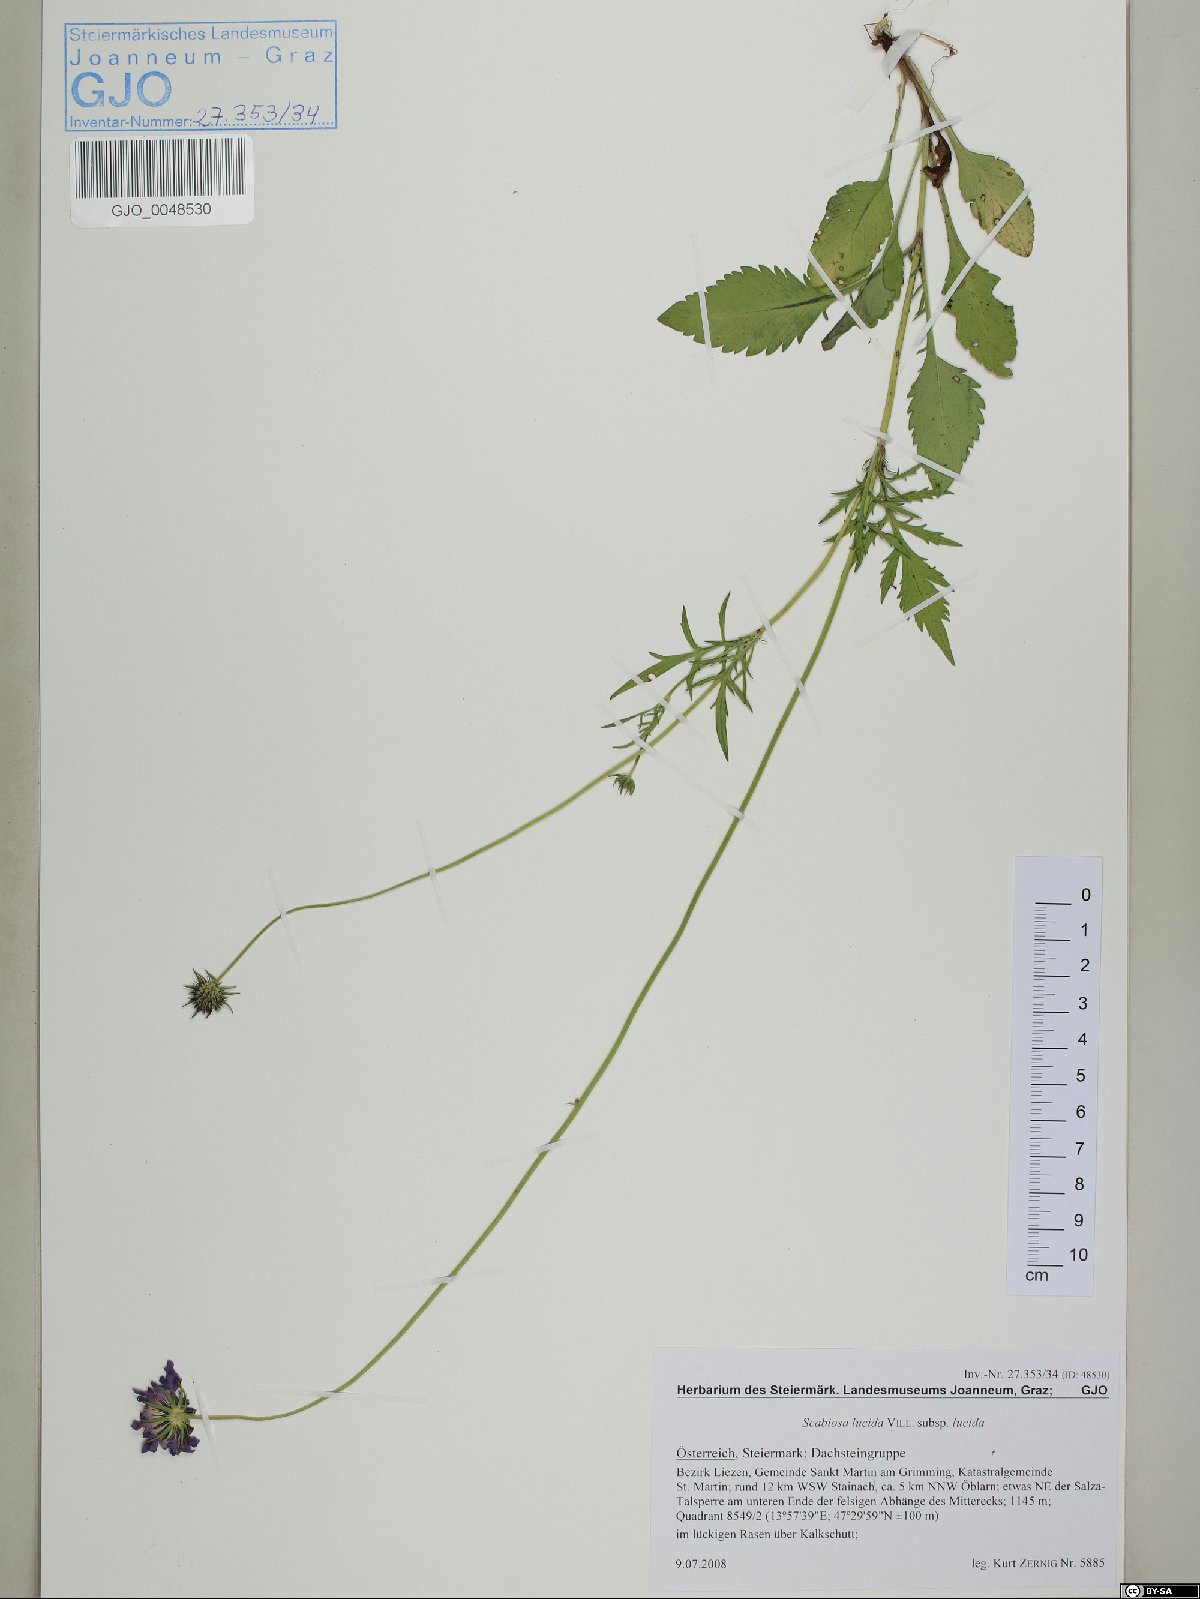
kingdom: Plantae
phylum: Tracheophyta
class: Magnoliopsida
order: Dipsacales
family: Caprifoliaceae
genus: Scabiosa
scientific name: Scabiosa lucida
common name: Shining scabious
